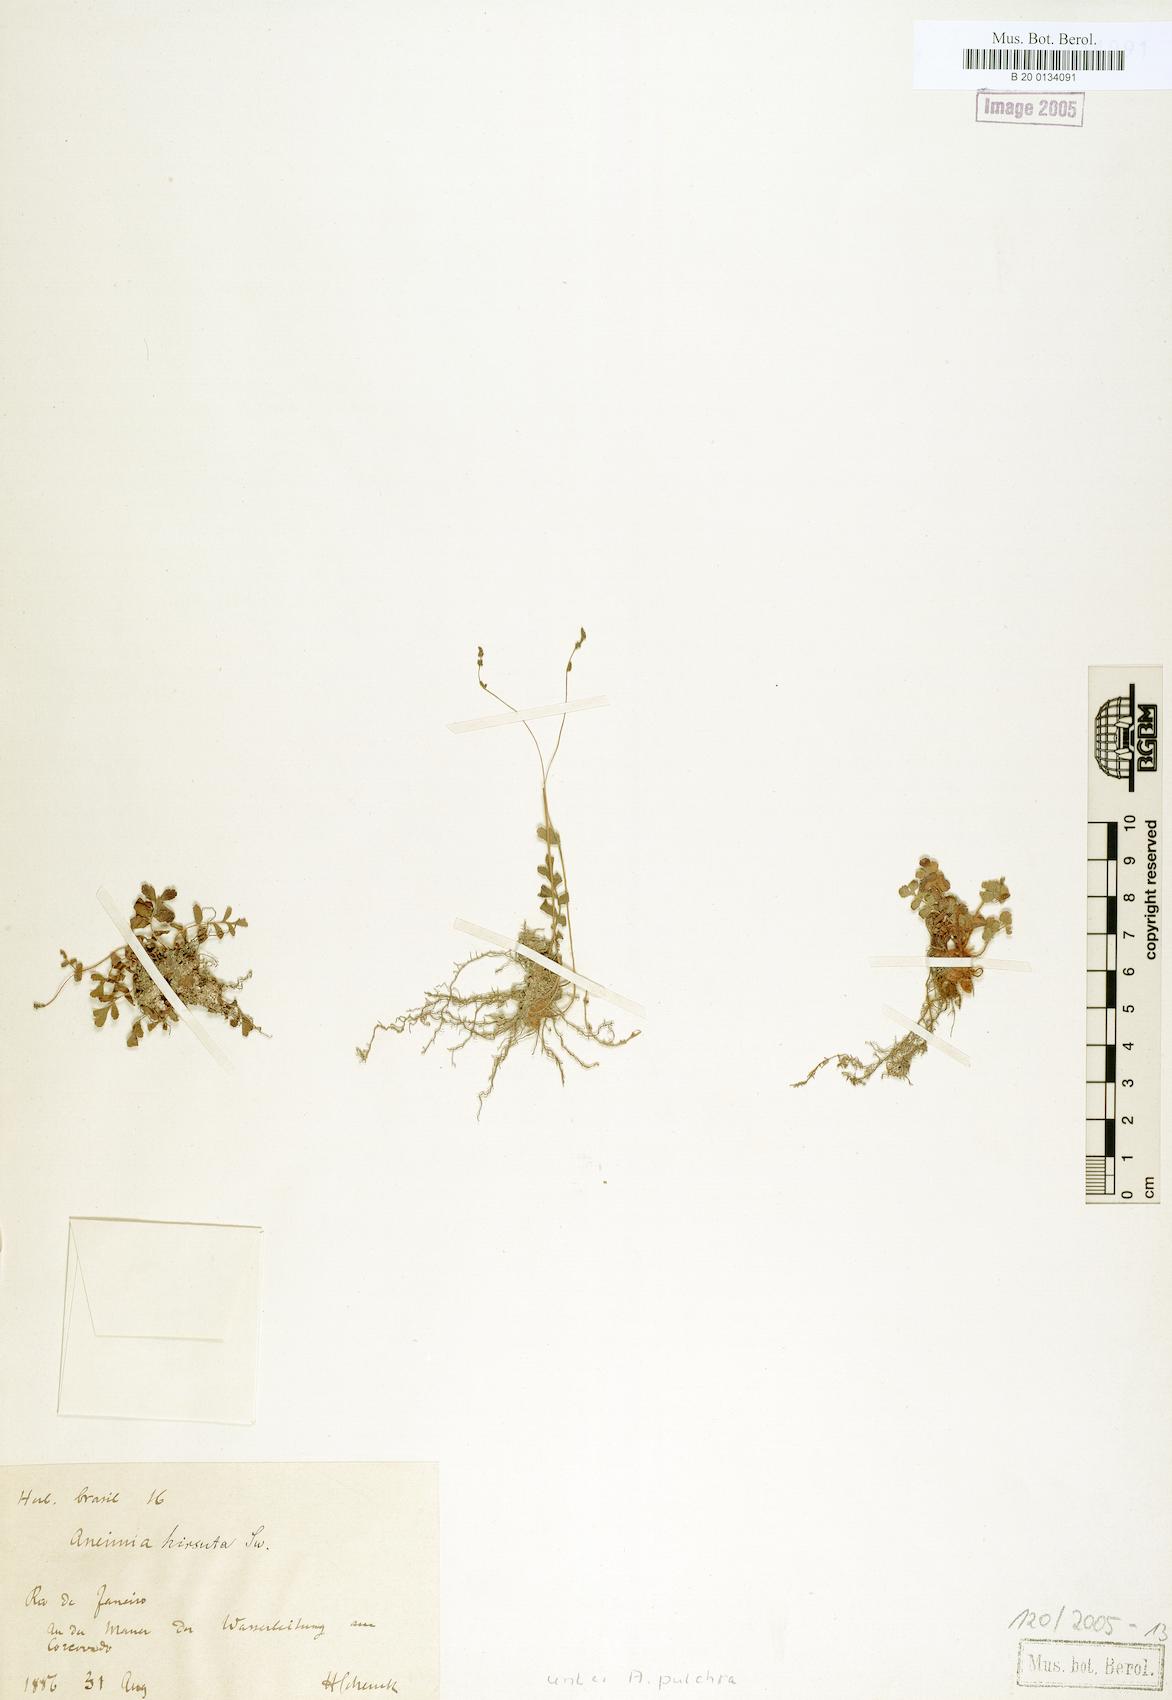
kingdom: Plantae
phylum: Tracheophyta
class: Polypodiopsida
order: Schizaeales
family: Anemiaceae
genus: Anemia
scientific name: Anemia repens
